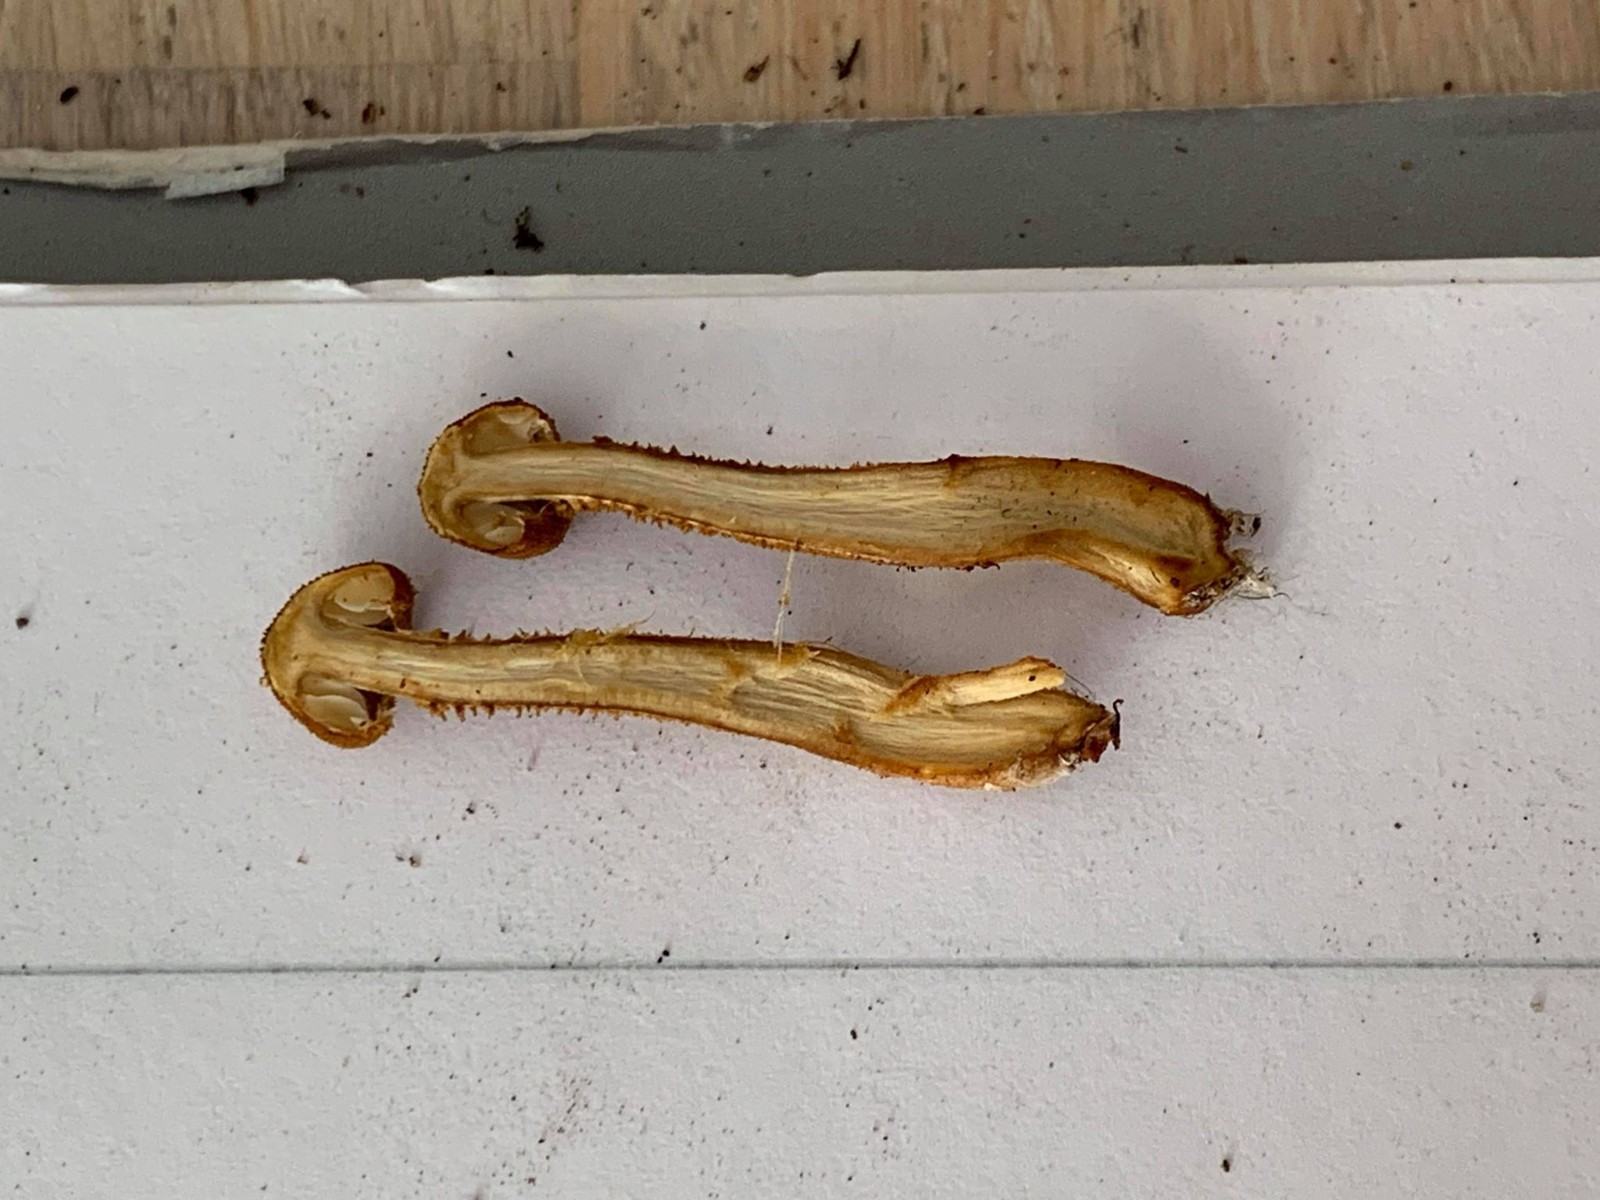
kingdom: Fungi
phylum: Basidiomycota
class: Agaricomycetes
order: Agaricales
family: Tricholomataceae
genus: Cystoderma
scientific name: Cystoderma jasonis
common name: gulkødet grynhat
